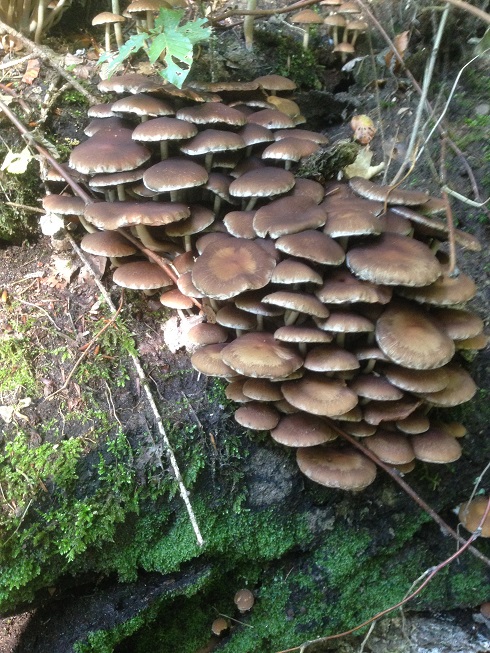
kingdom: Fungi
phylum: Basidiomycota
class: Agaricomycetes
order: Agaricales
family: Psathyrellaceae
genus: Psathyrella
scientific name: Psathyrella piluliformis
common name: lysstokket mørkhat
